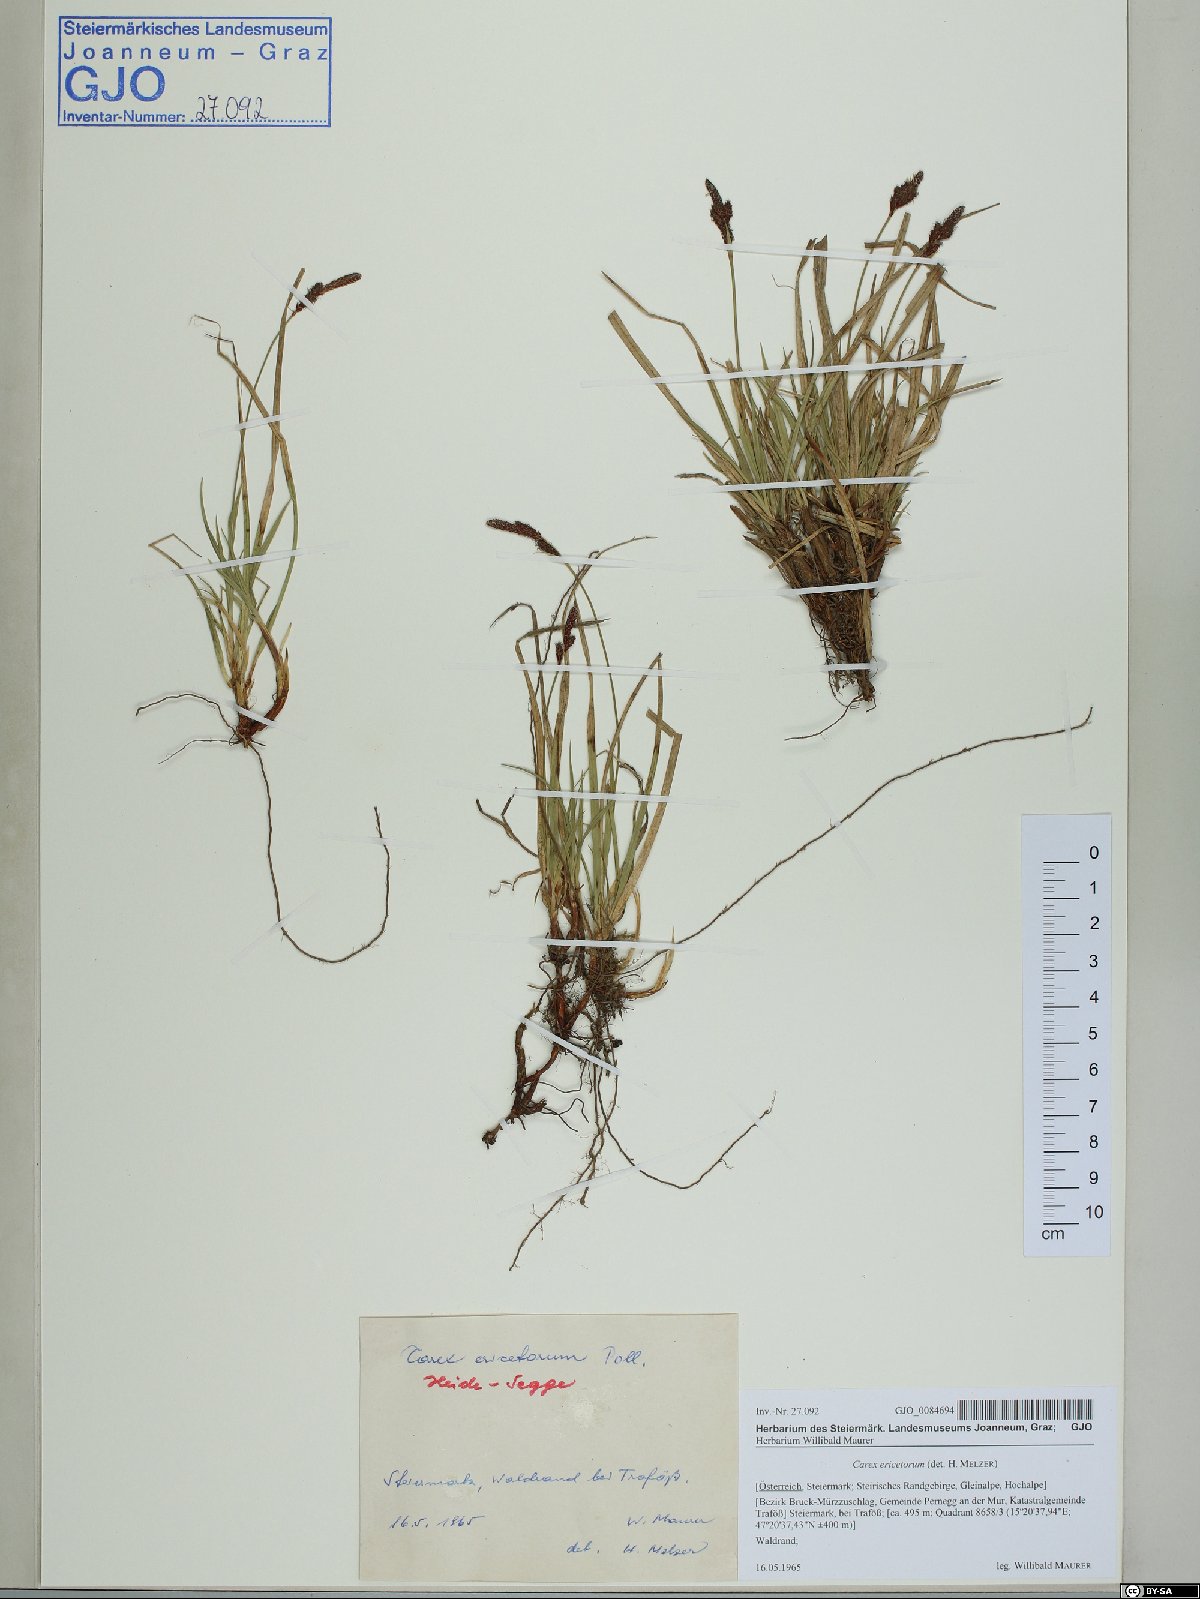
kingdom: Plantae
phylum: Tracheophyta
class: Liliopsida
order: Poales
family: Cyperaceae
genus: Carex
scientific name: Carex ericetorum
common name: Rare spring-sedge
